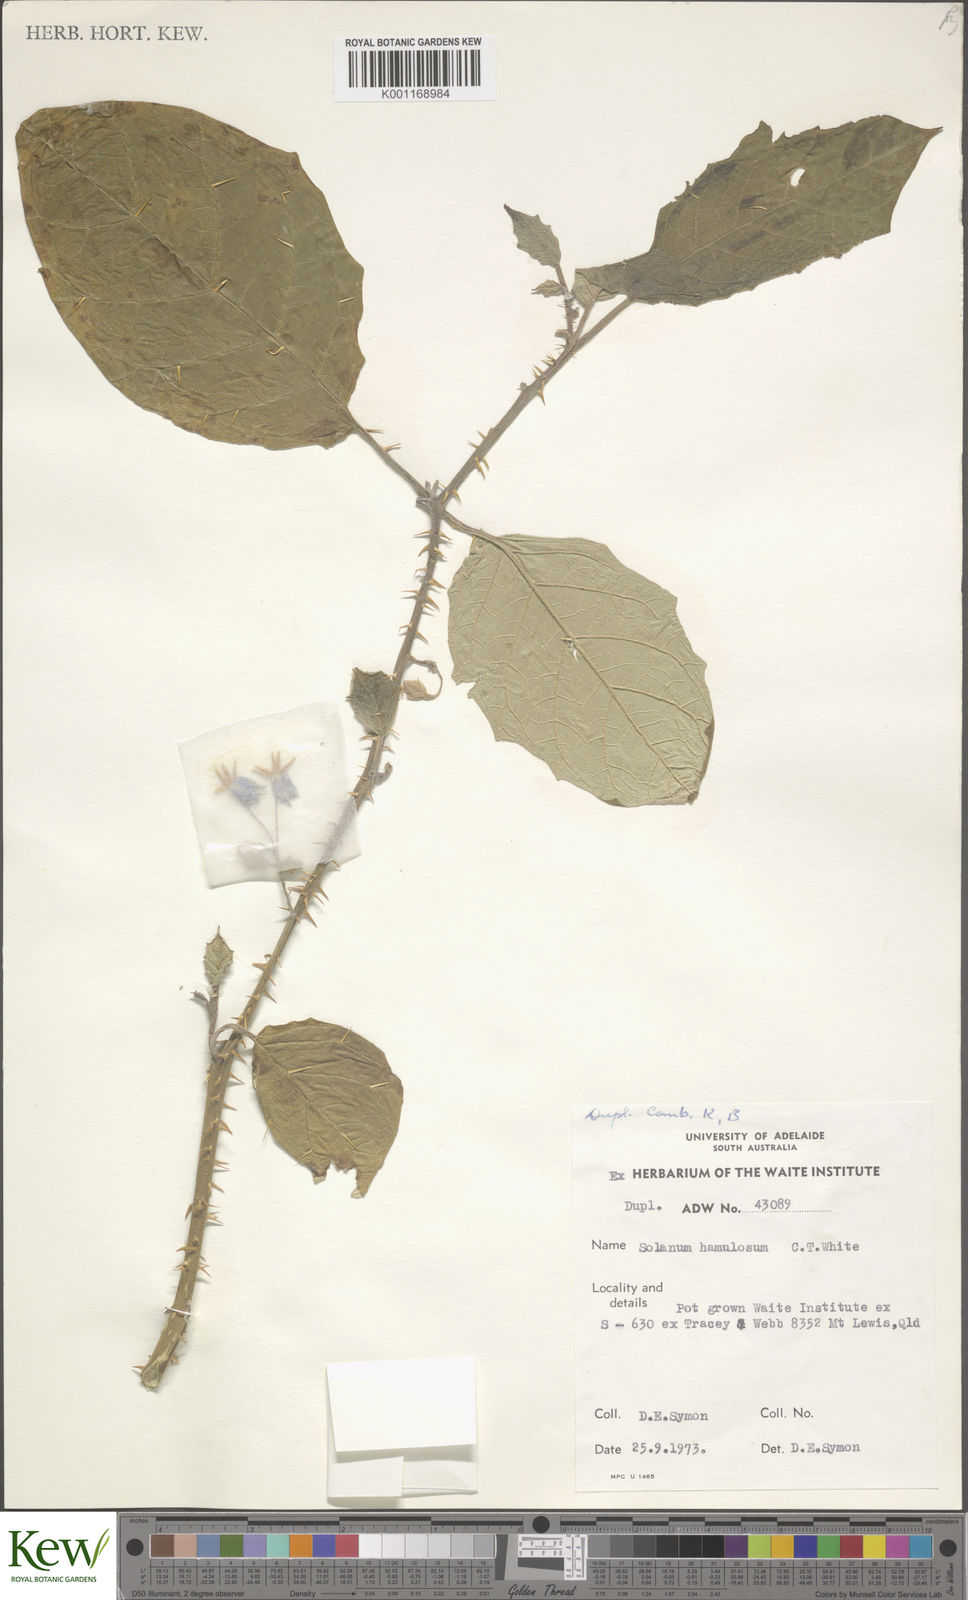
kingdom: Plantae
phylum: Tracheophyta
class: Magnoliopsida
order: Solanales
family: Solanaceae
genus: Solanum
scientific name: Solanum hamulosum
